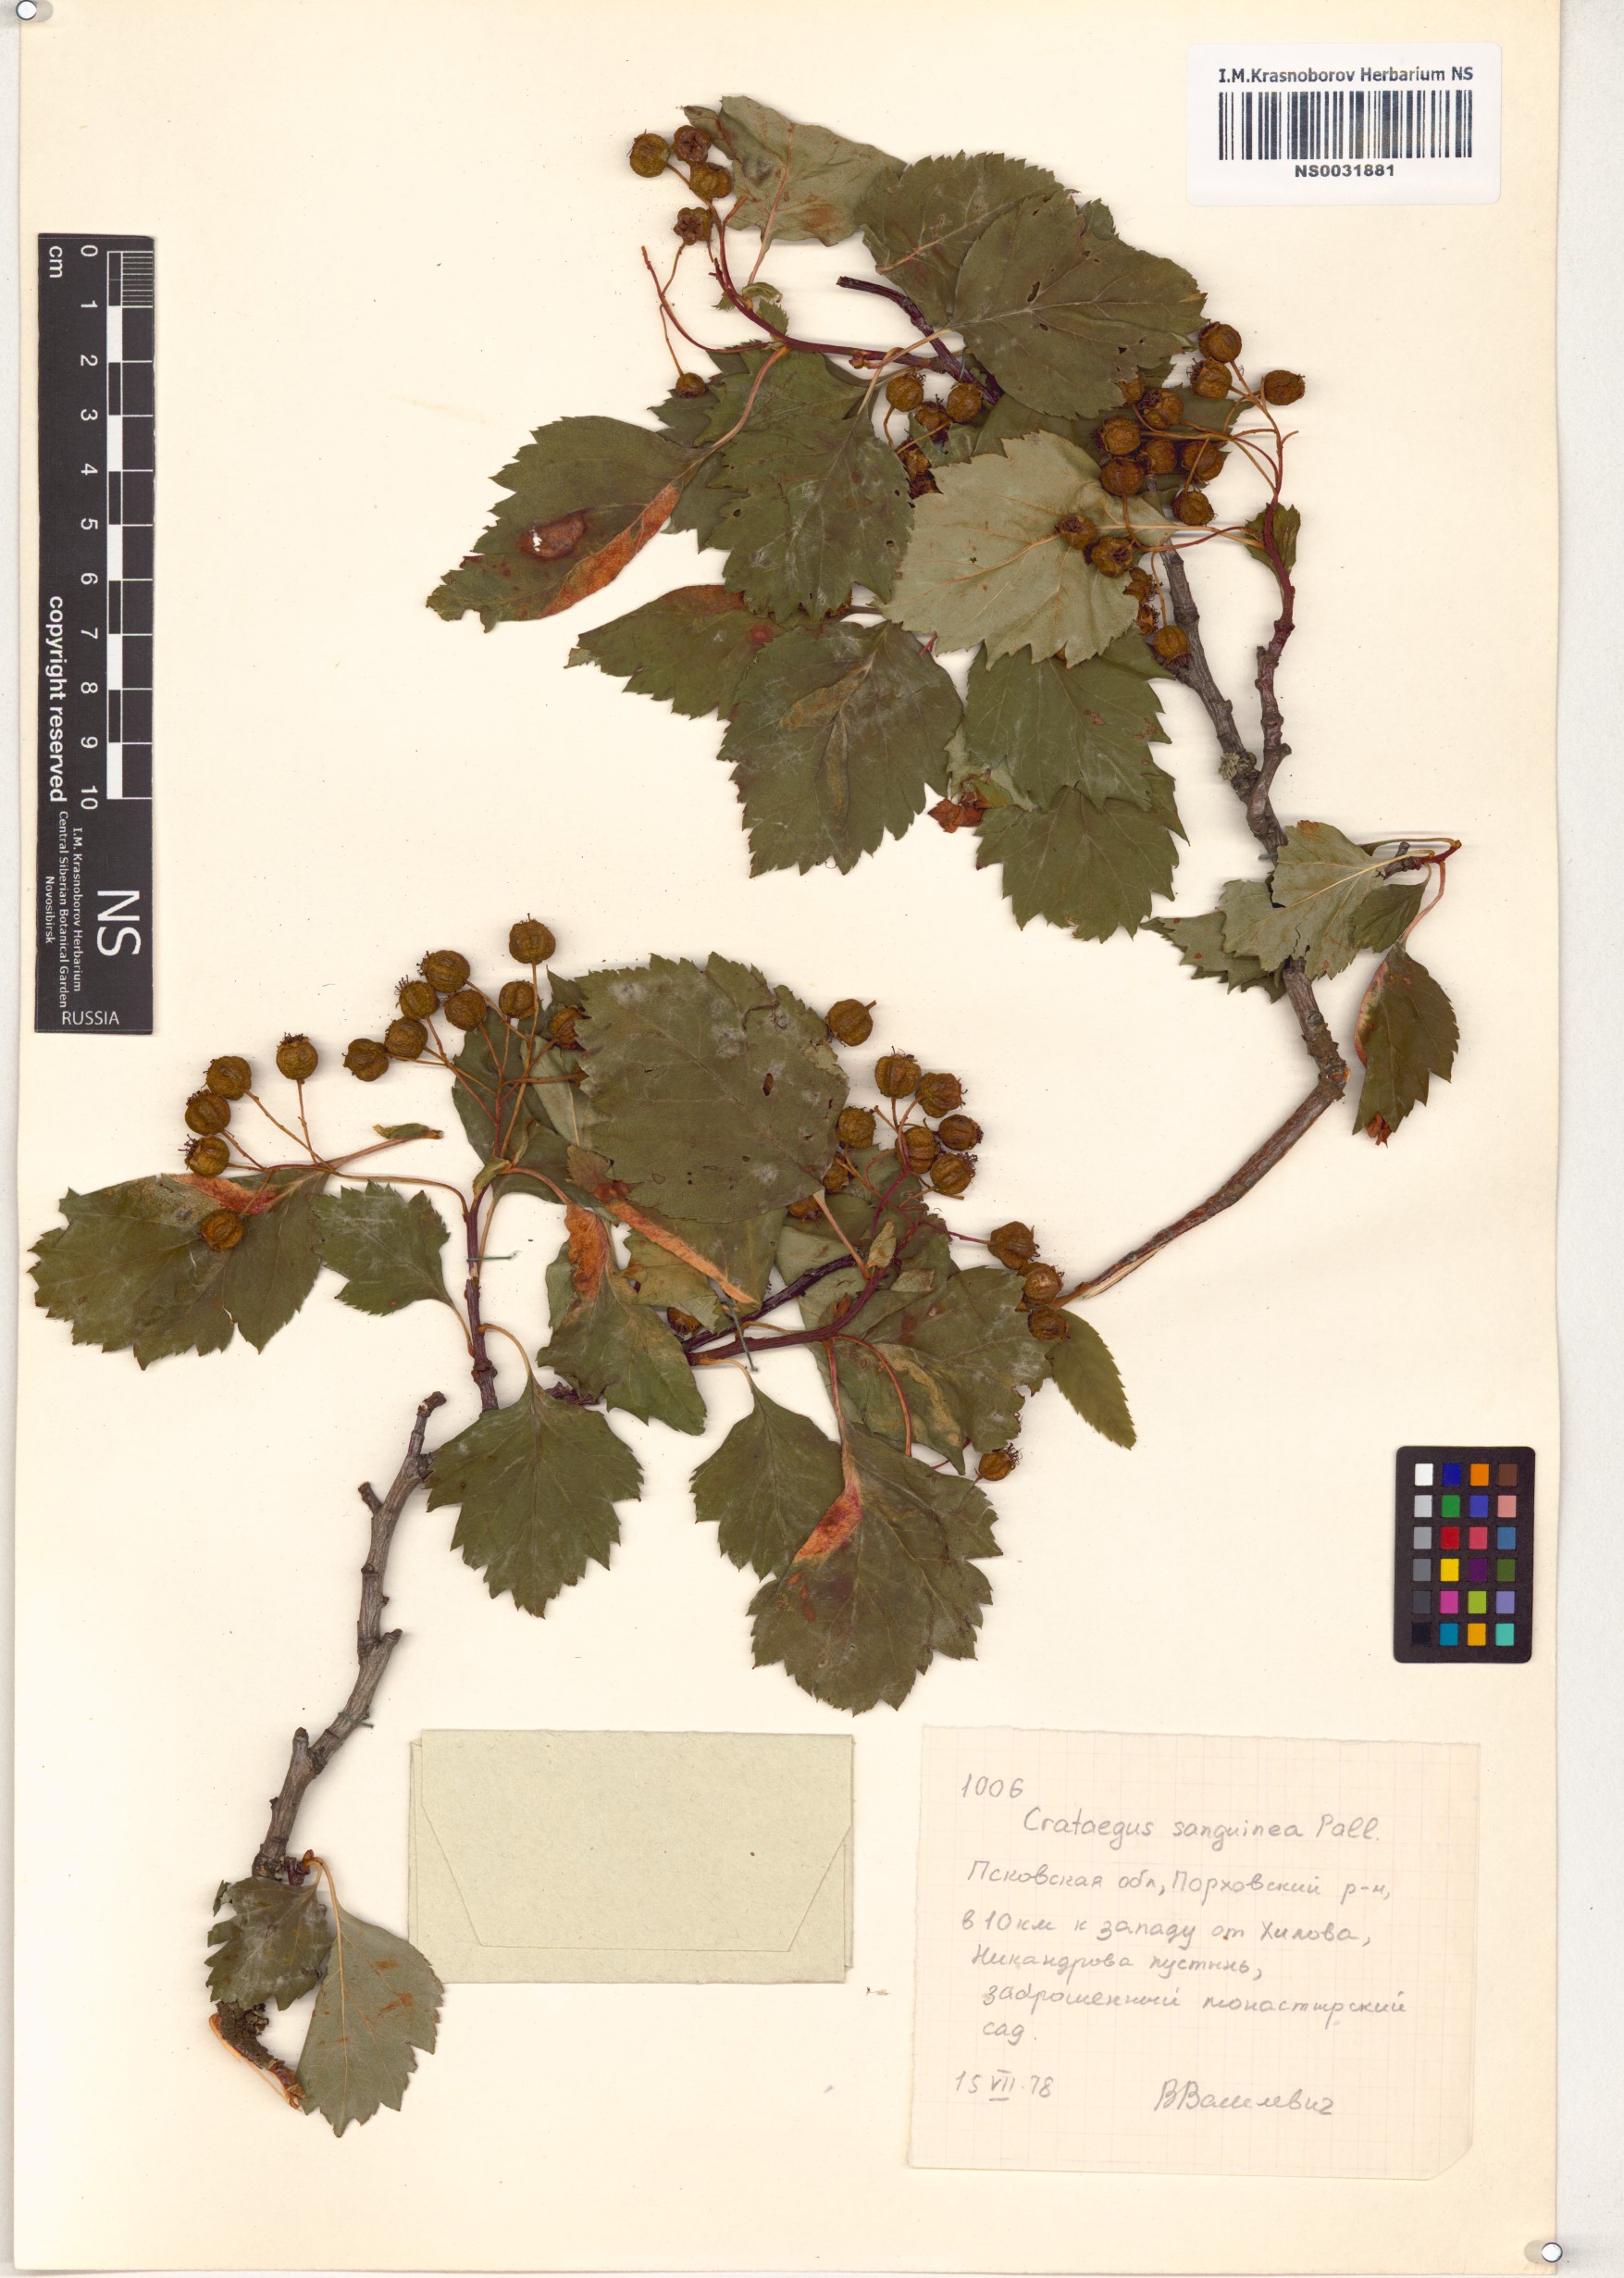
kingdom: Plantae
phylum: Tracheophyta
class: Magnoliopsida
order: Rosales
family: Rosaceae
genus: Crataegus
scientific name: Crataegus sanguinea
